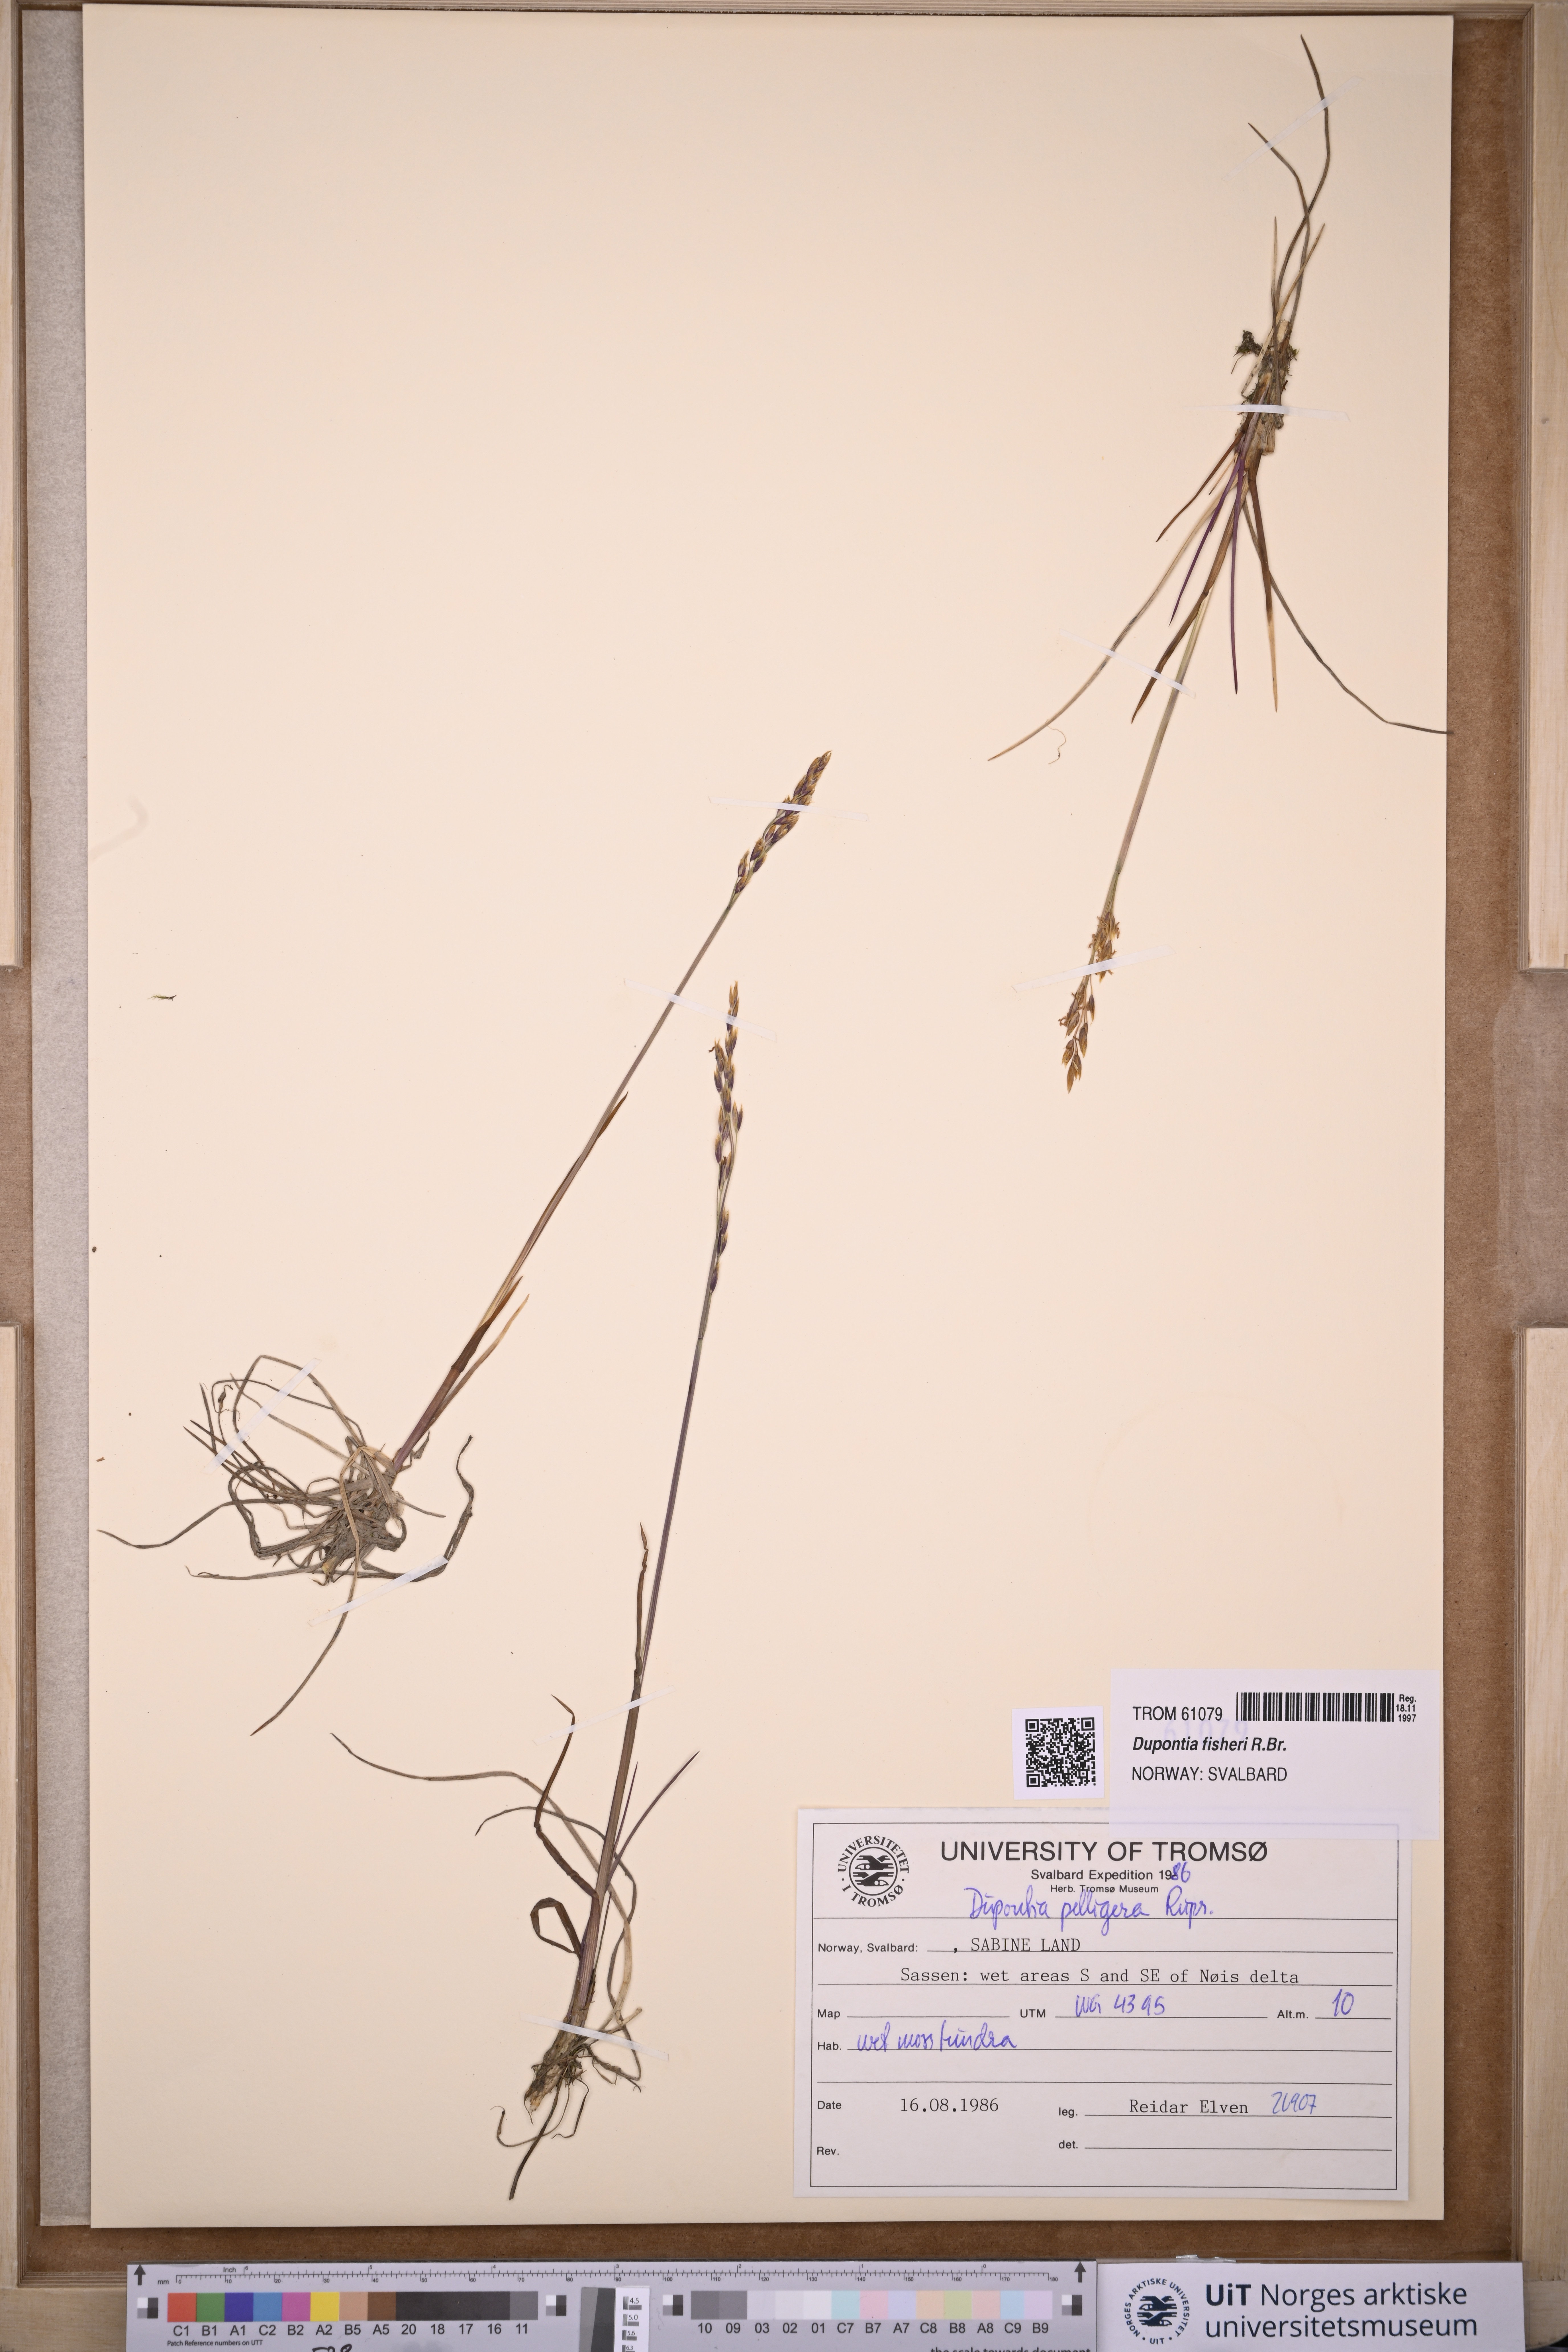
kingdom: Plantae
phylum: Tracheophyta
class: Liliopsida
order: Poales
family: Poaceae
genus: Dupontia
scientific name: Dupontia fisheri
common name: Tundra grass
